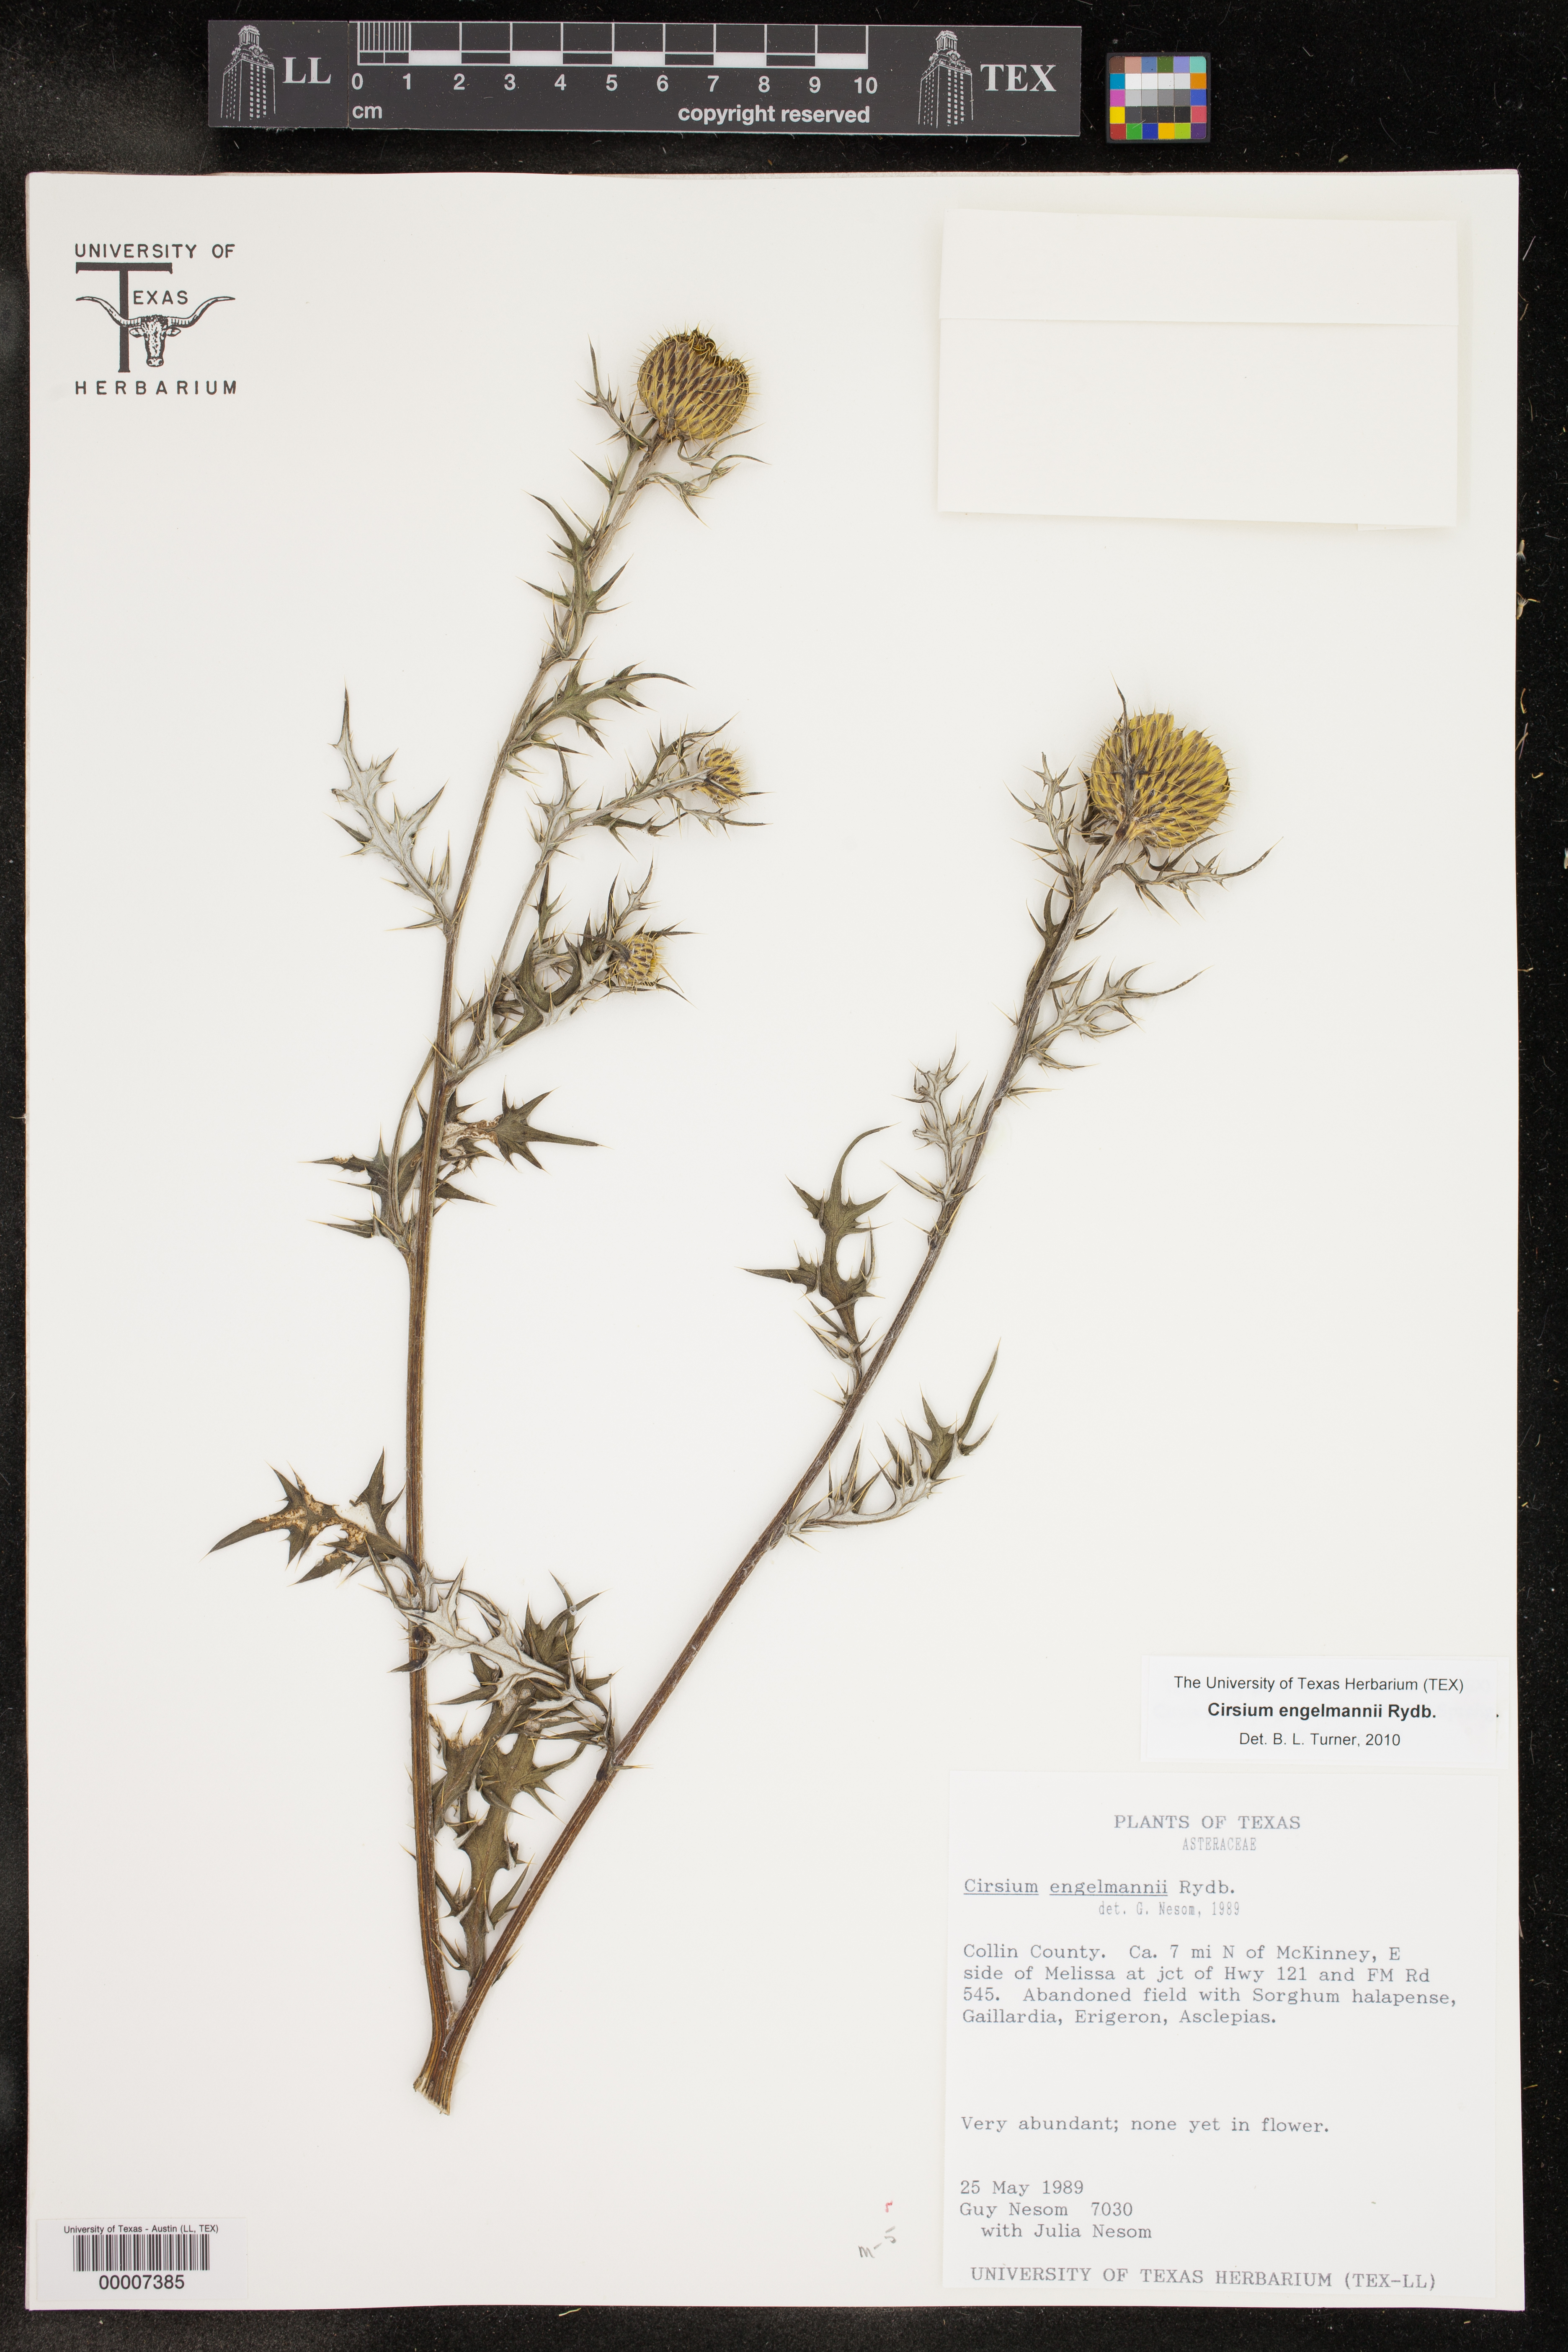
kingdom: Plantae
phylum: Tracheophyta
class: Magnoliopsida
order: Asterales
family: Asteraceae
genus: Cirsium
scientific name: Cirsium engelmannii
